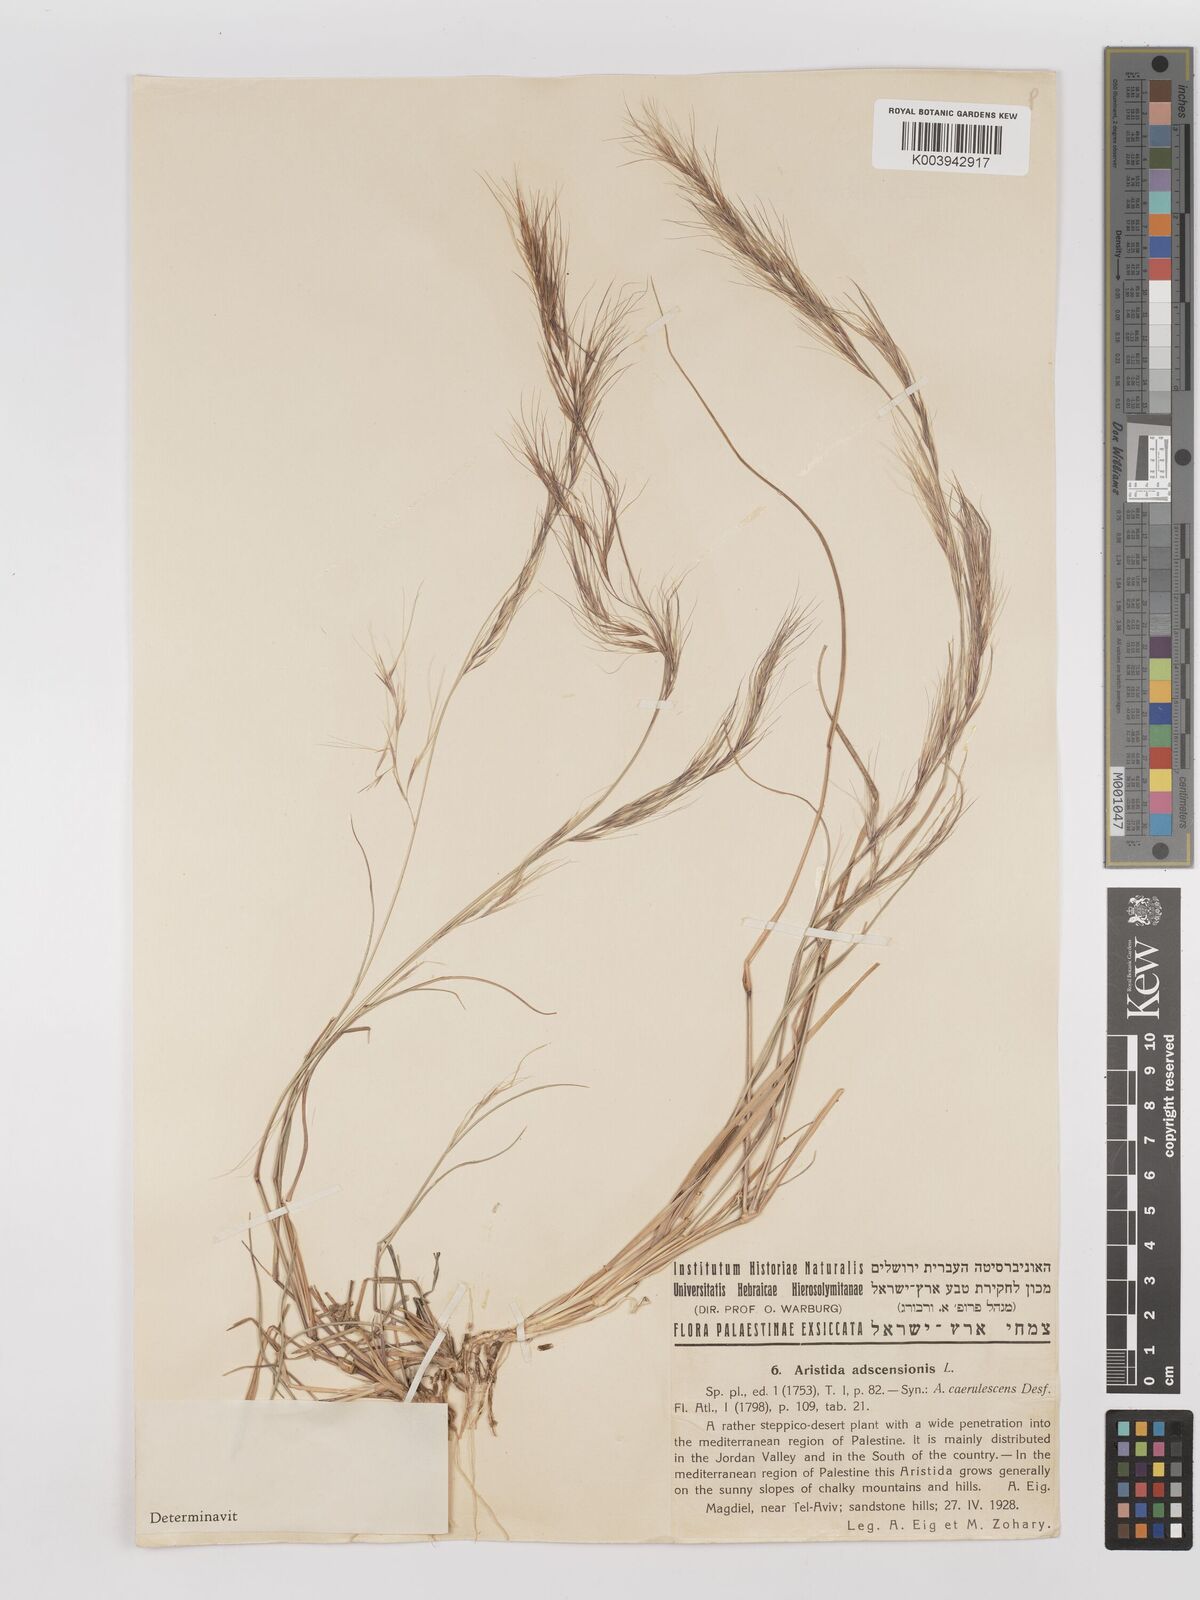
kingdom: Plantae
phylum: Tracheophyta
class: Liliopsida
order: Poales
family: Poaceae
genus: Aristida
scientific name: Aristida adscensionis
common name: Sixweeks threeawn
